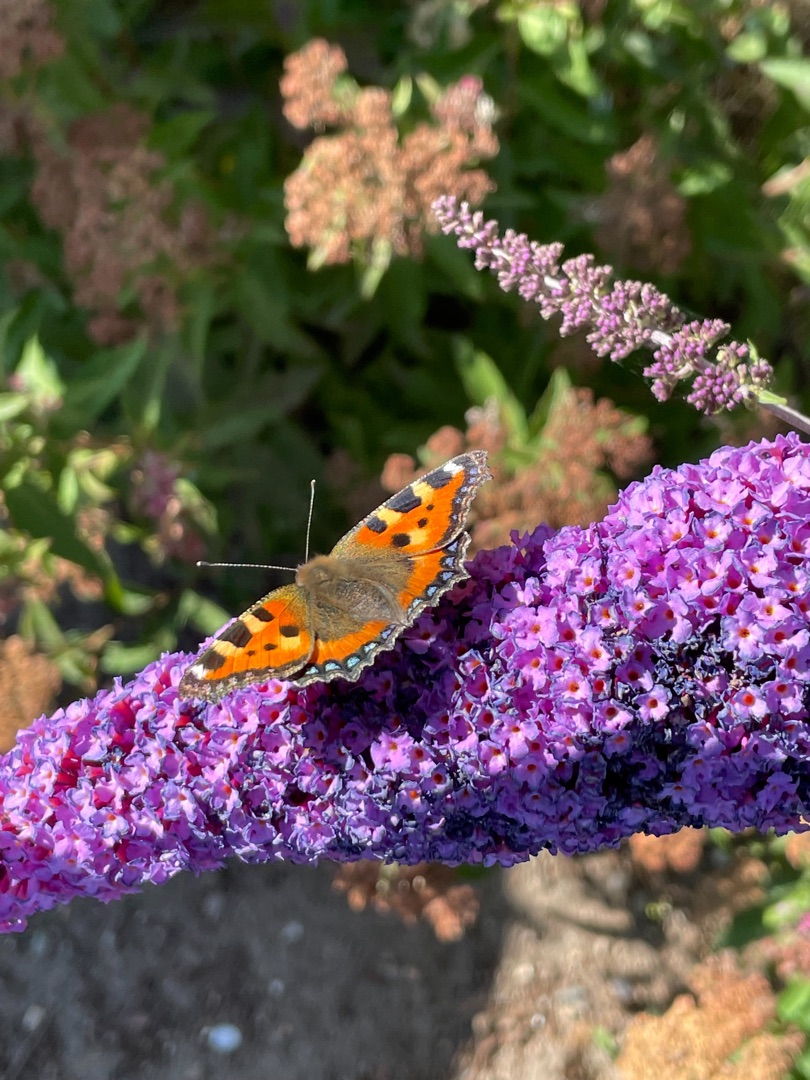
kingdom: Animalia
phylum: Arthropoda
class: Insecta
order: Lepidoptera
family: Nymphalidae
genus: Aglais
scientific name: Aglais urticae
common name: Nældens takvinge
